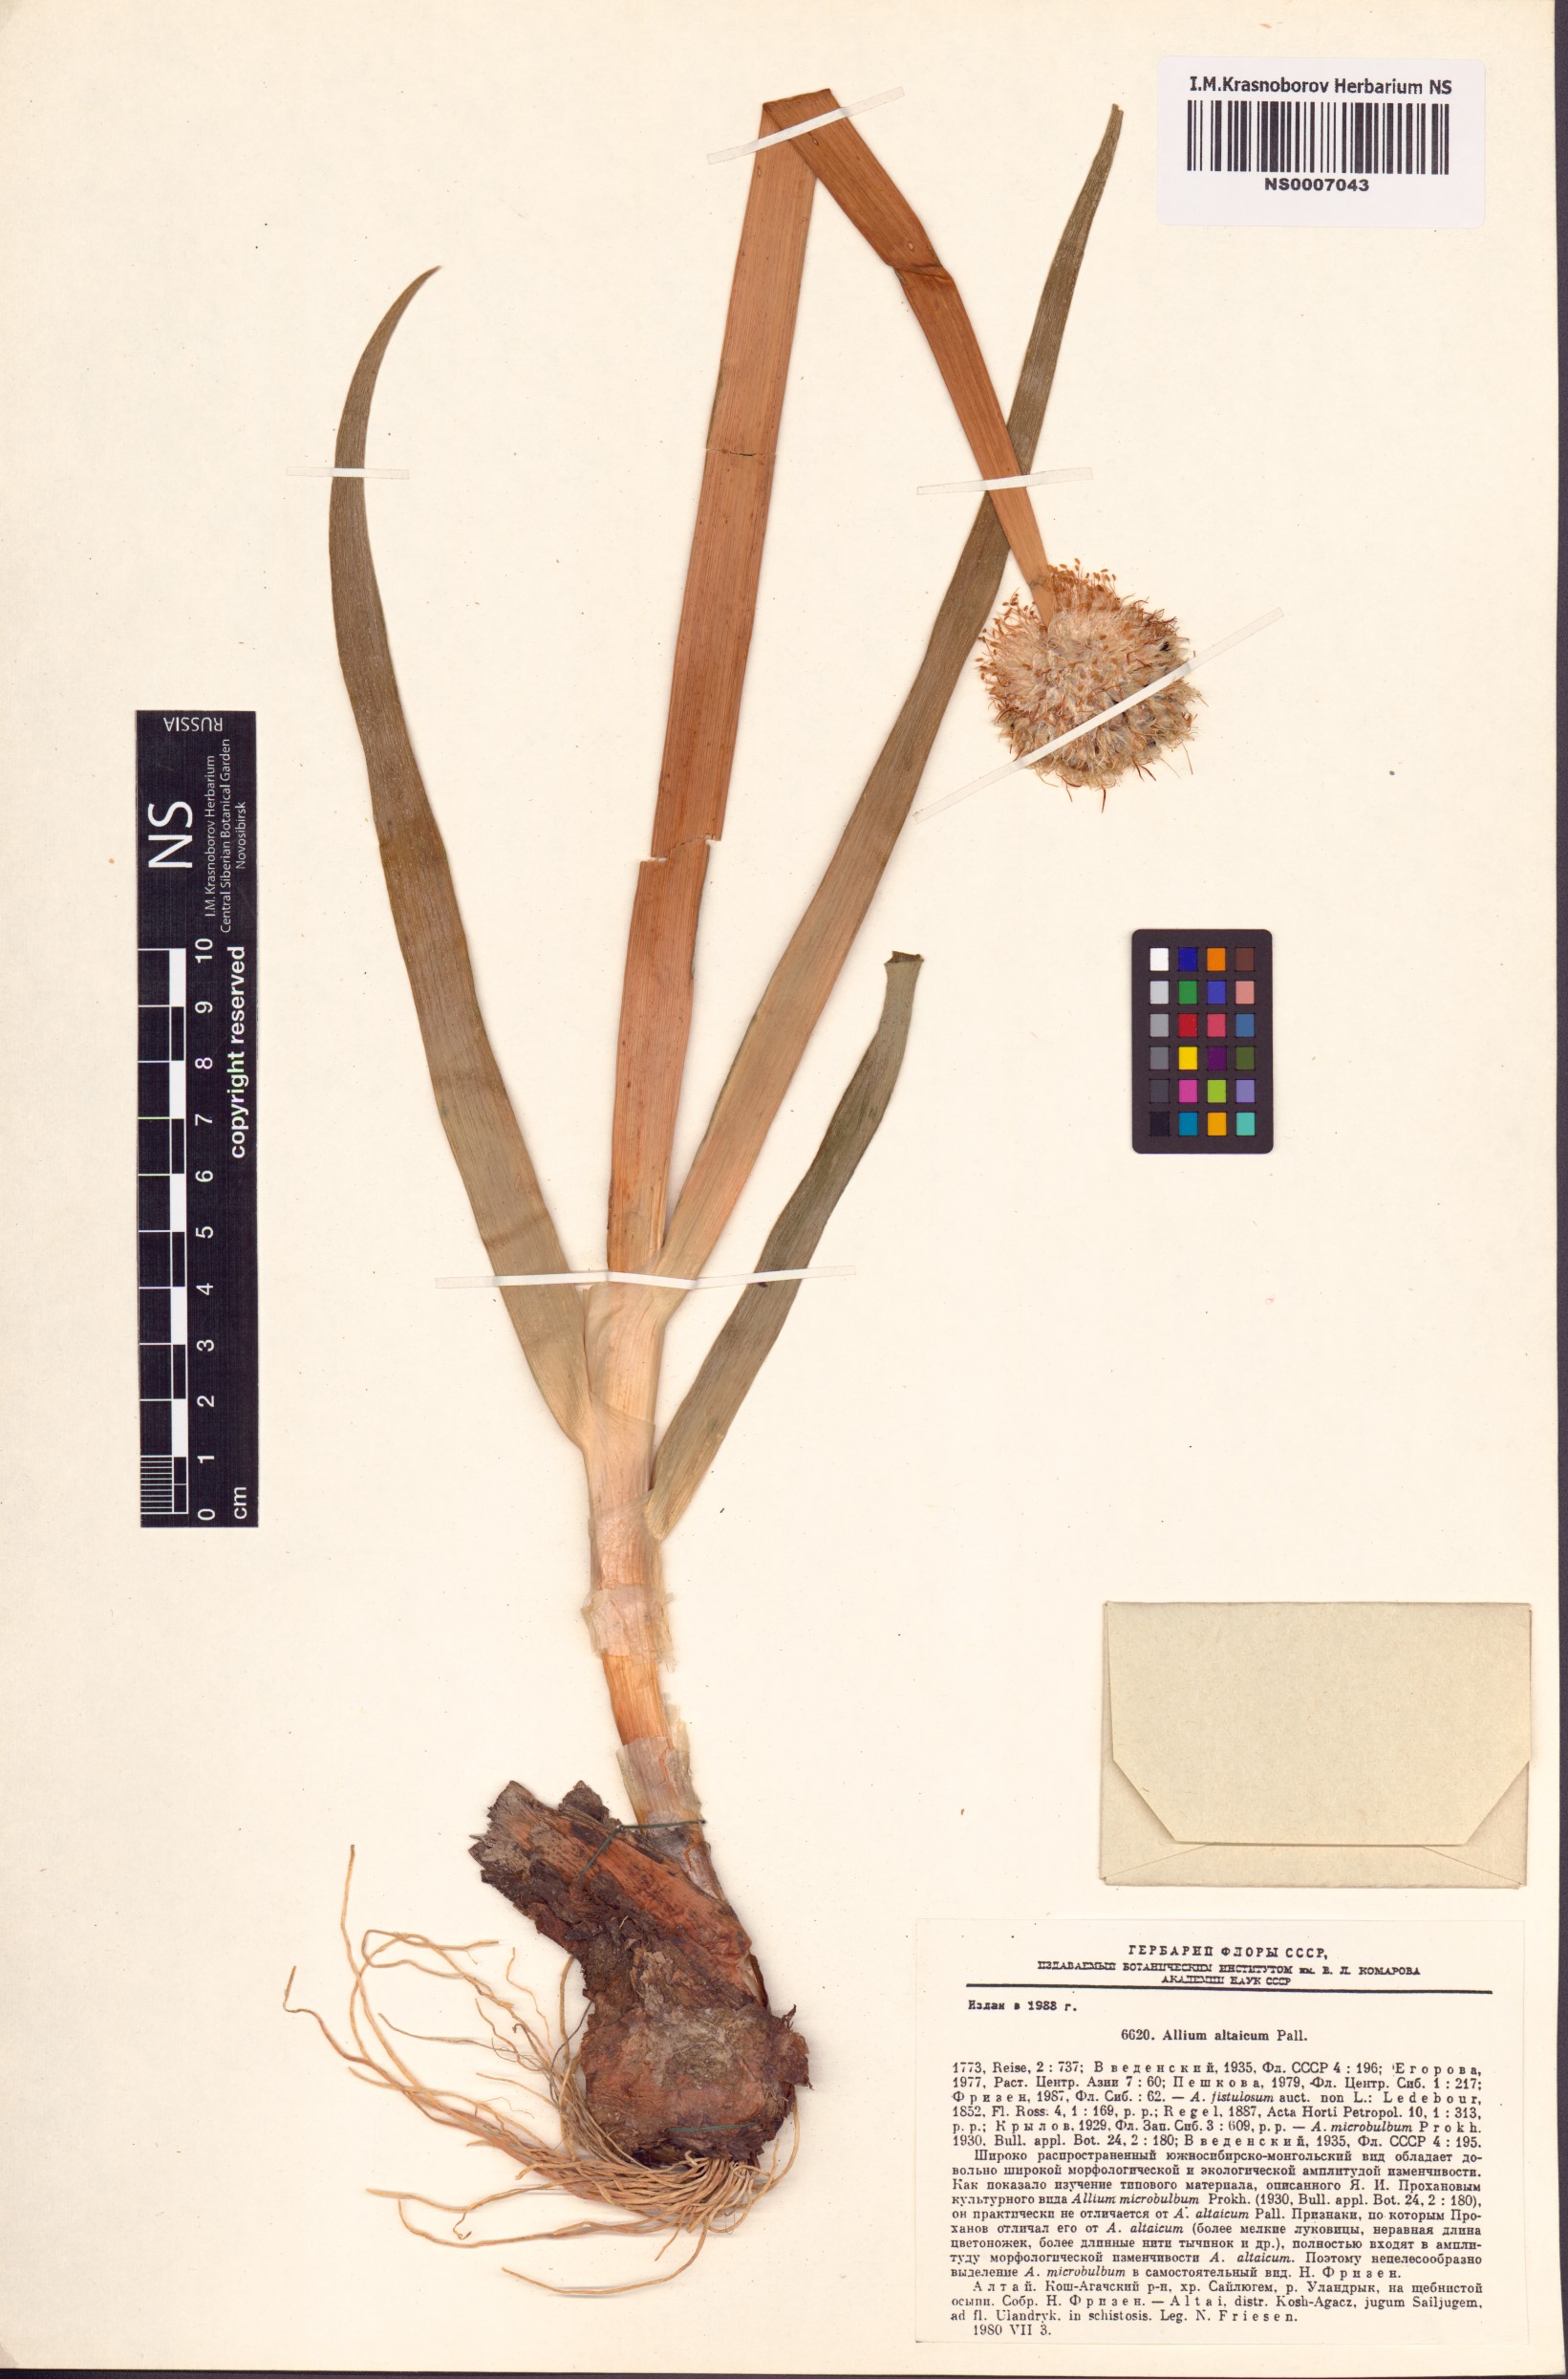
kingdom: Plantae
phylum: Tracheophyta
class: Liliopsida
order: Asparagales
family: Amaryllidaceae
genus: Allium
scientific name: Allium altaicum
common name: Altai onion
